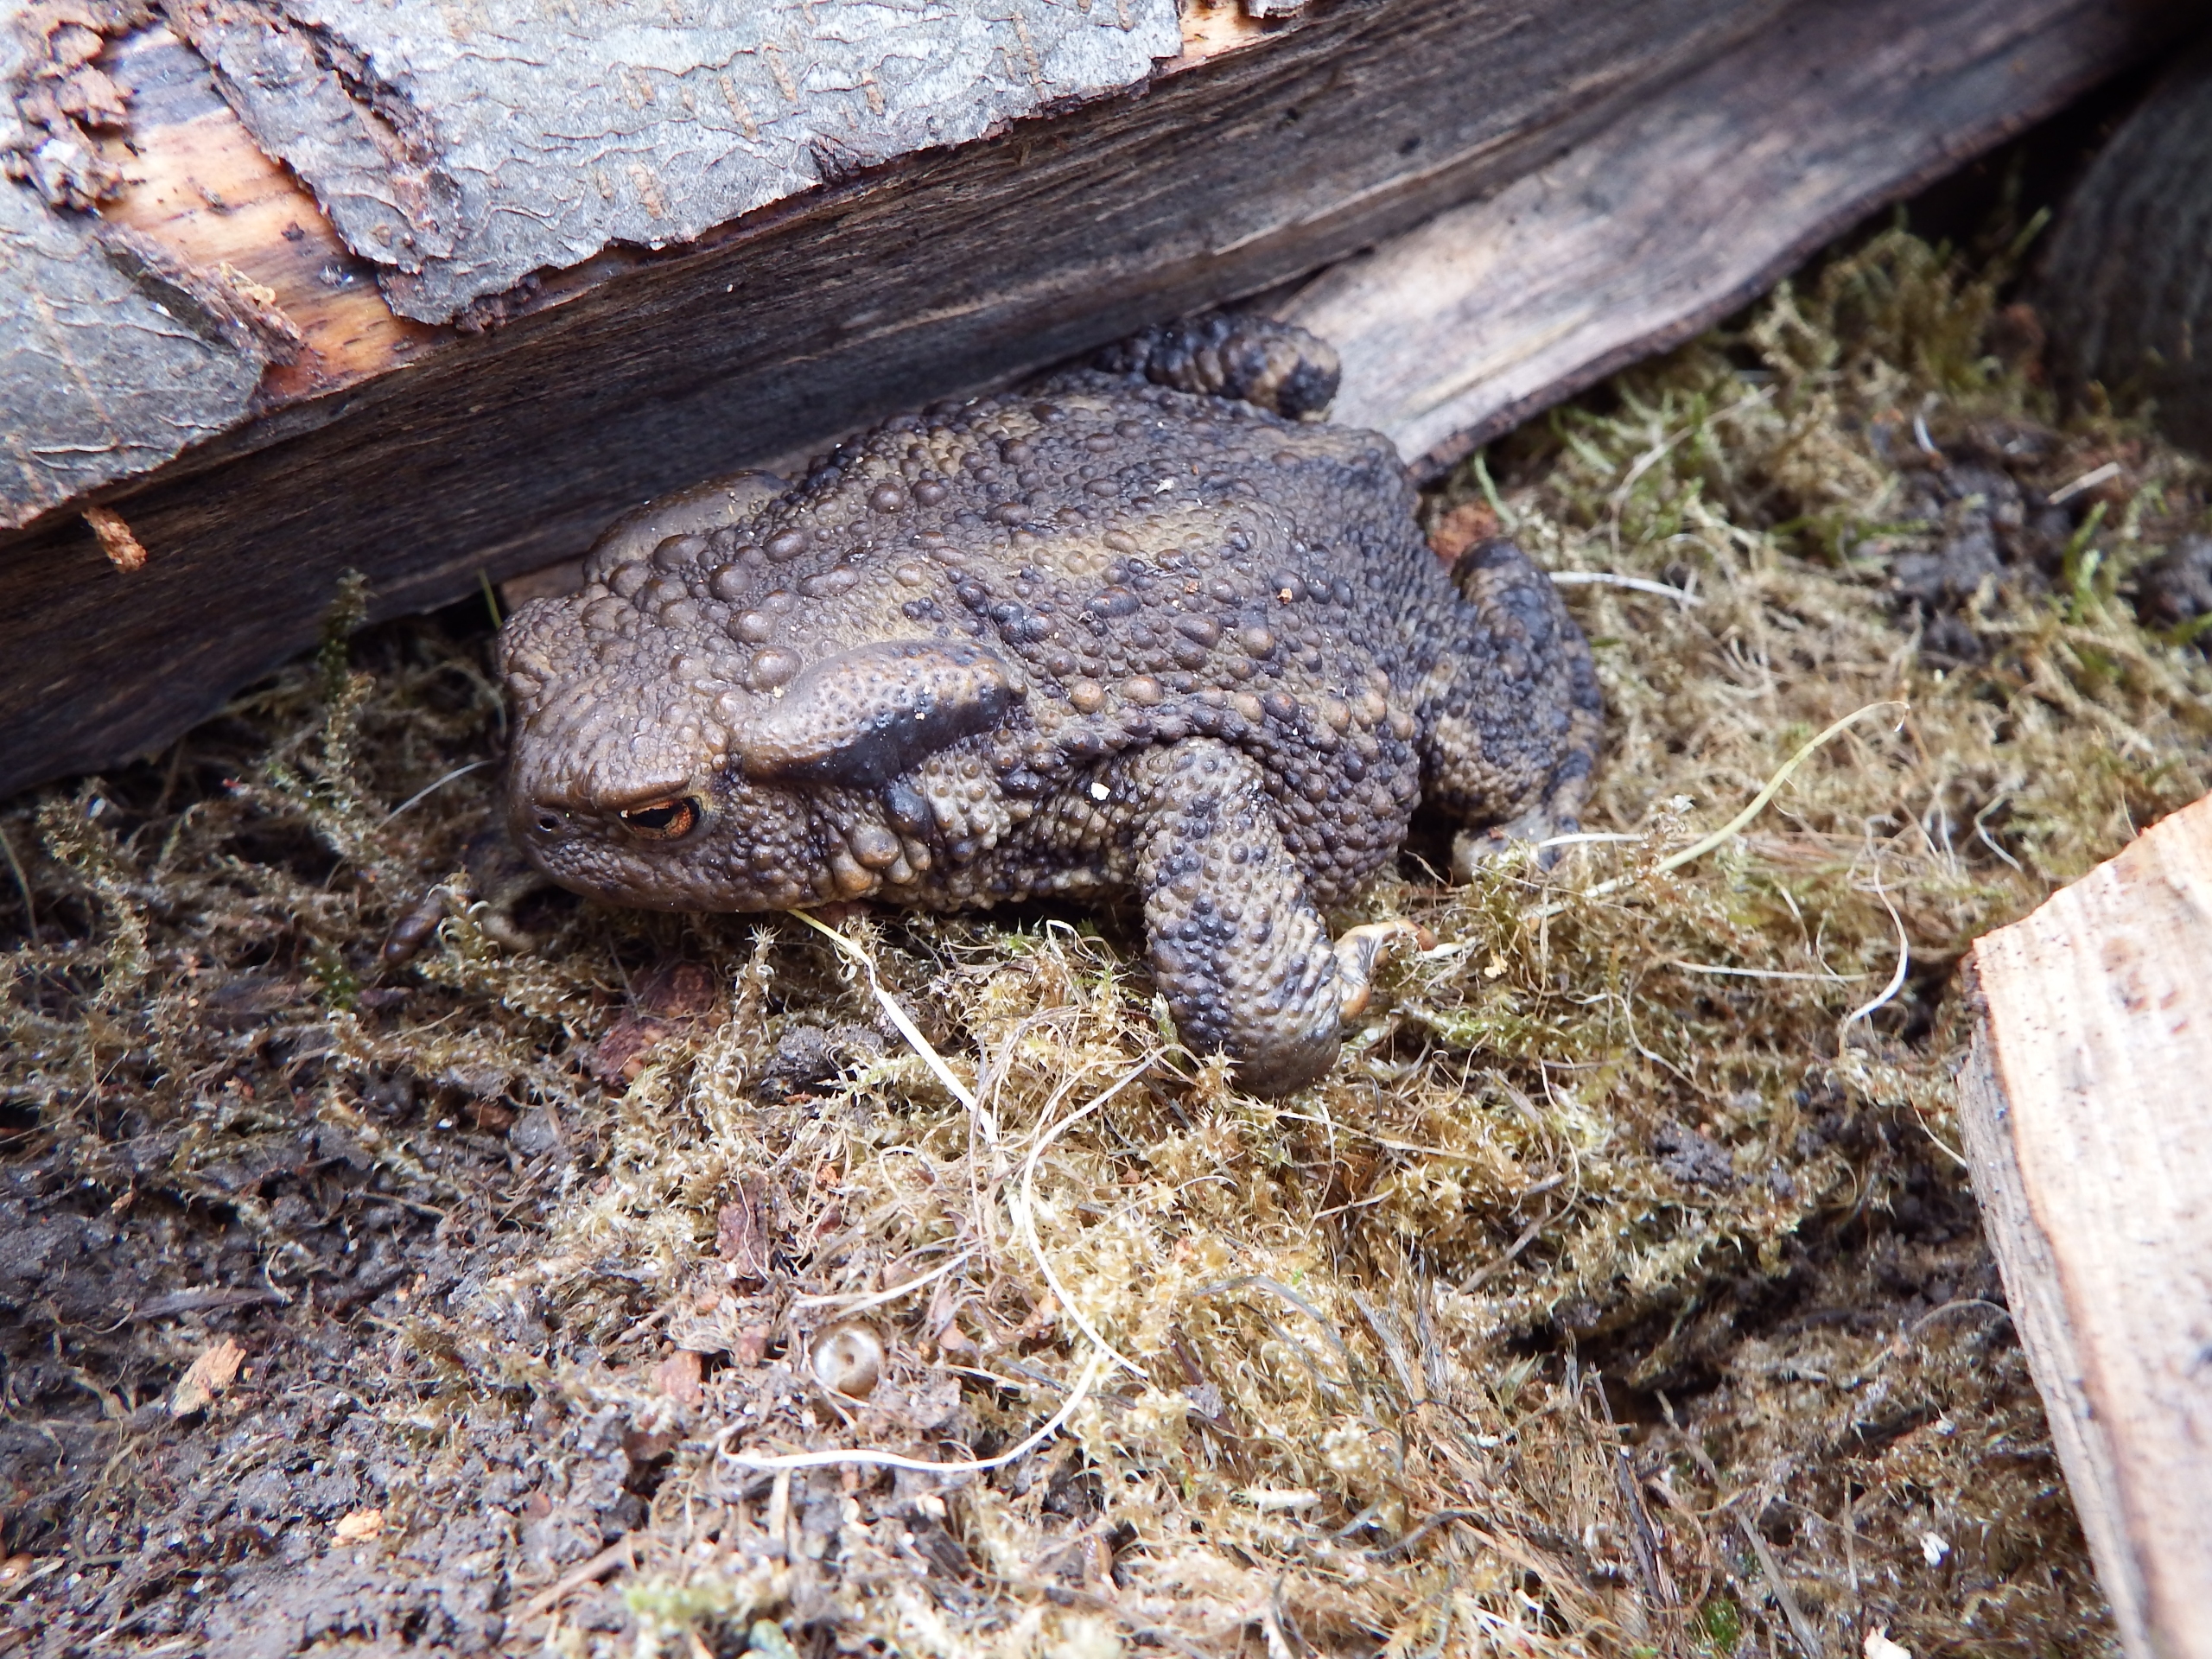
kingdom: Animalia
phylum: Chordata
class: Amphibia
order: Anura
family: Bufonidae
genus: Bufo
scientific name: Bufo bufo
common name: Skrubtudse
